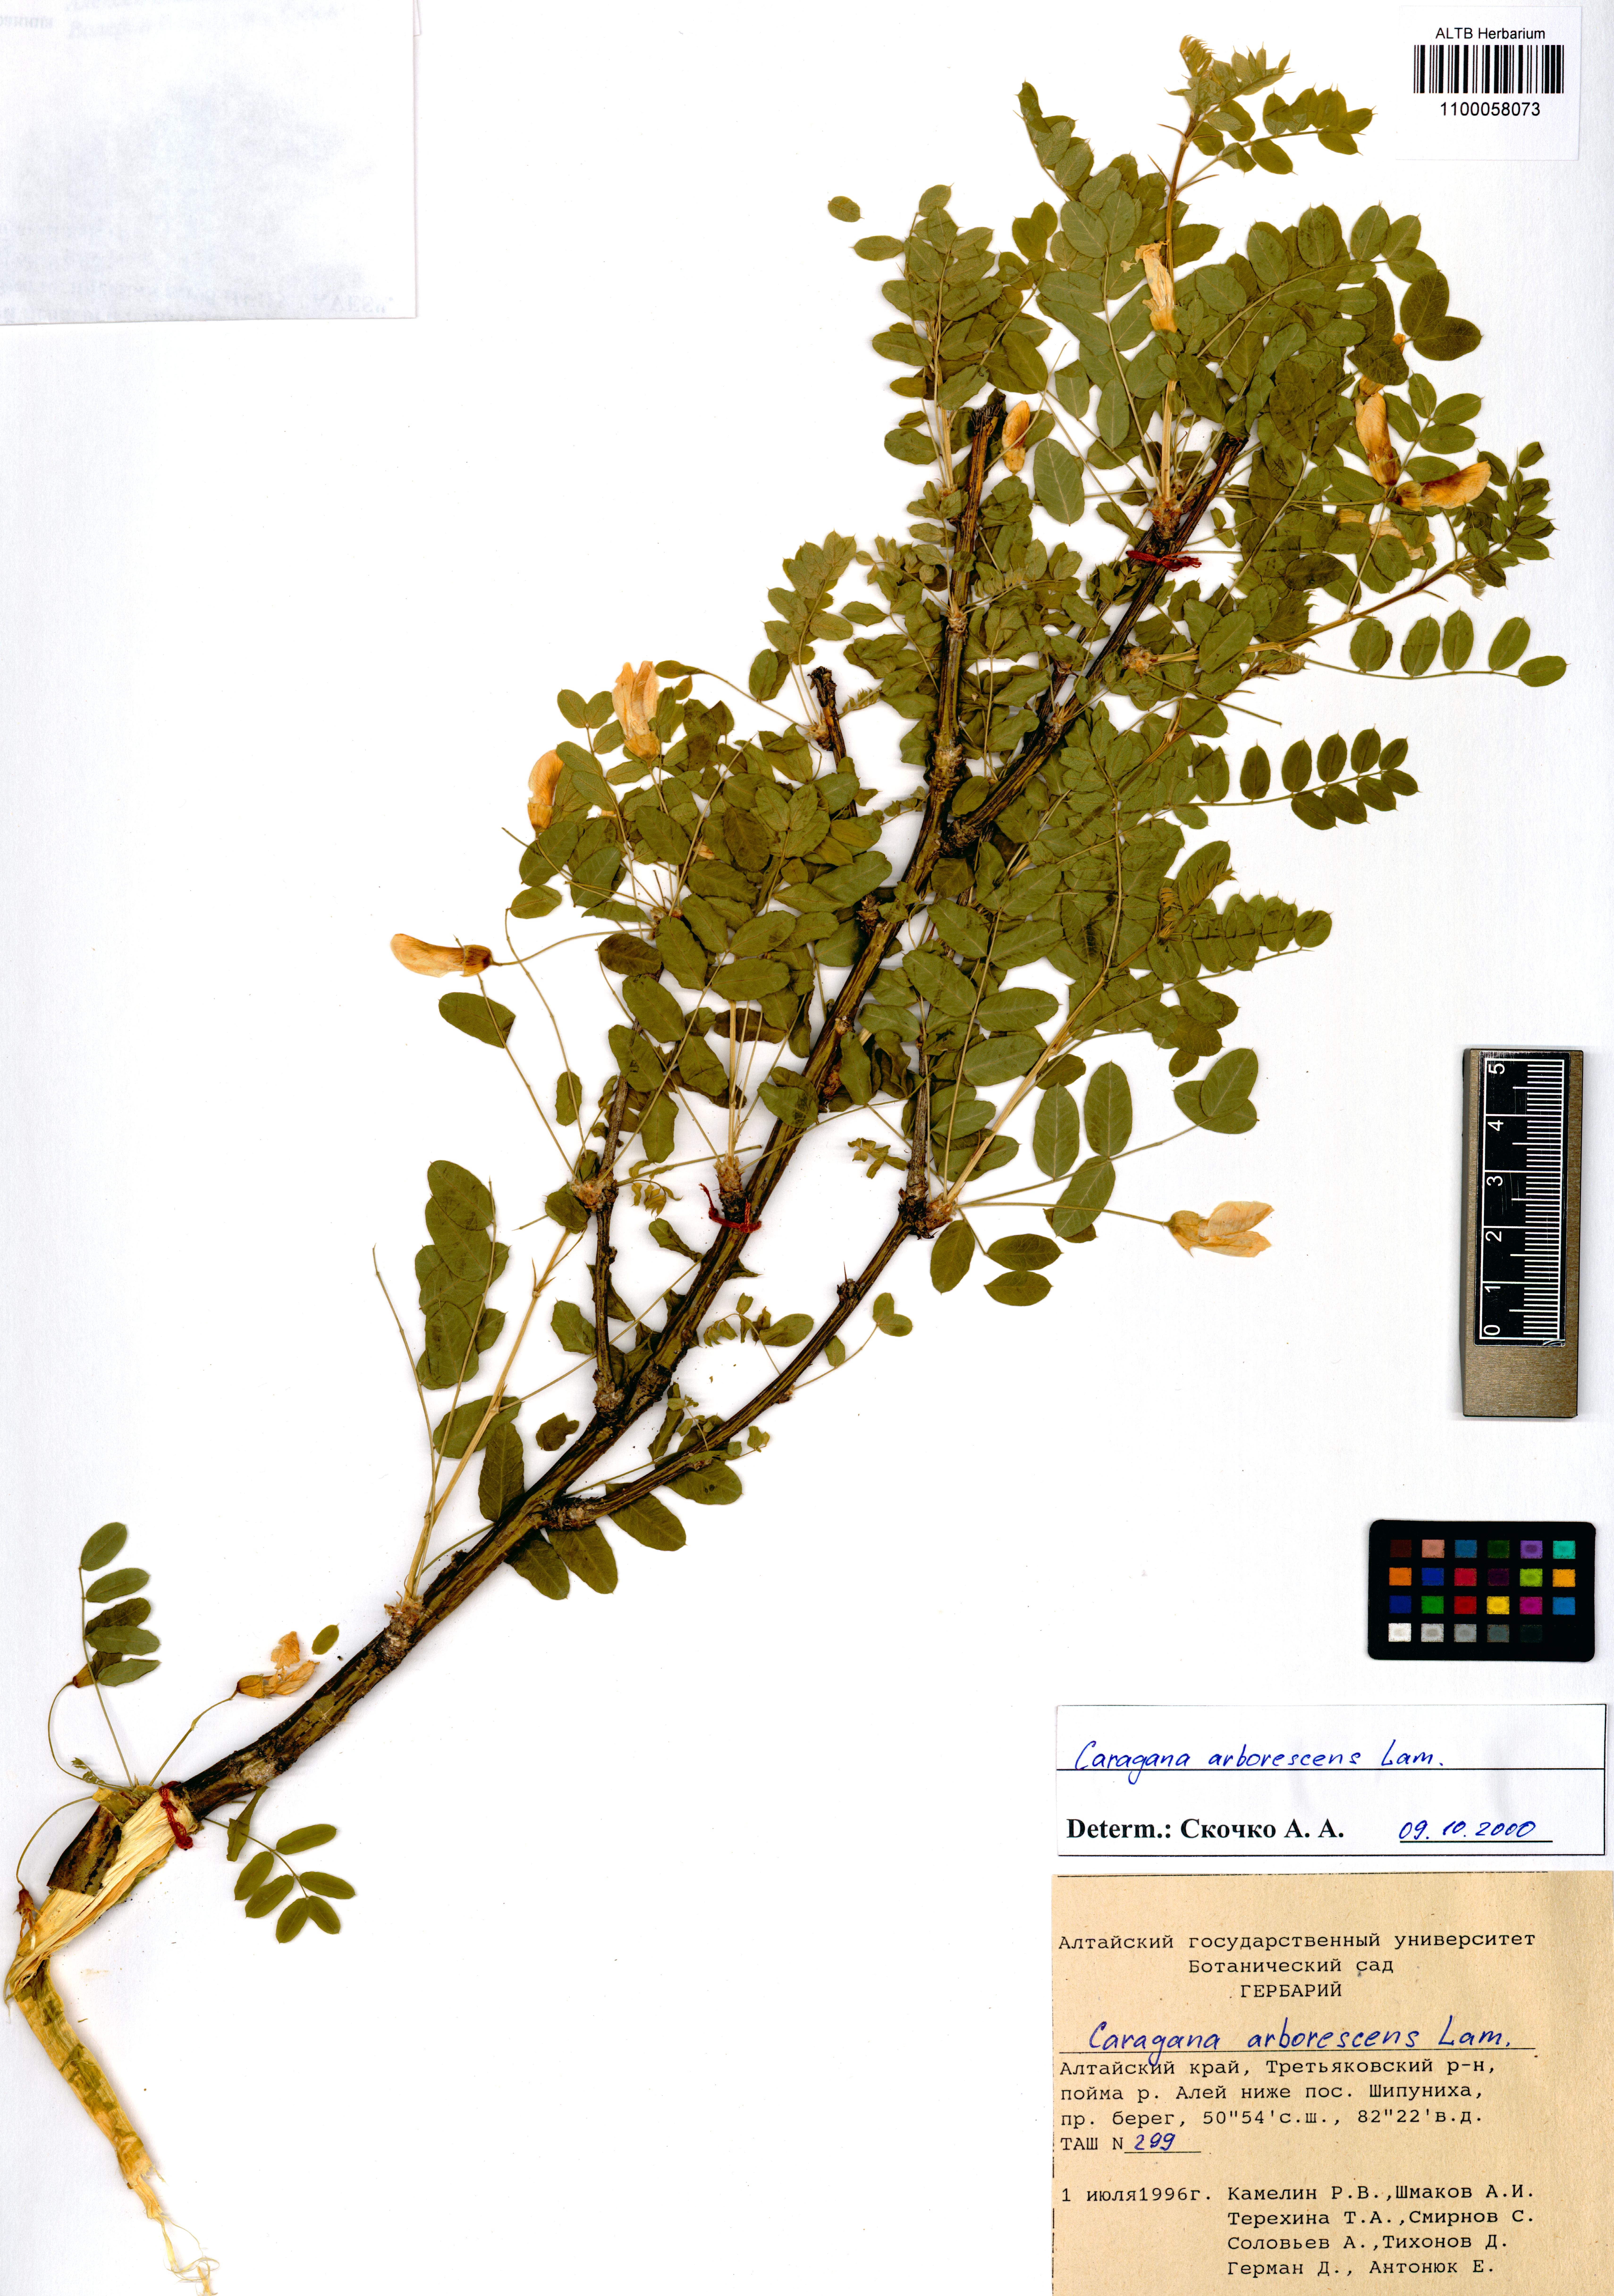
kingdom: Plantae
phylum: Tracheophyta
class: Magnoliopsida
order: Fabales
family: Fabaceae
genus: Caragana
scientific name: Caragana arborescens
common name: Siberian peashrub
